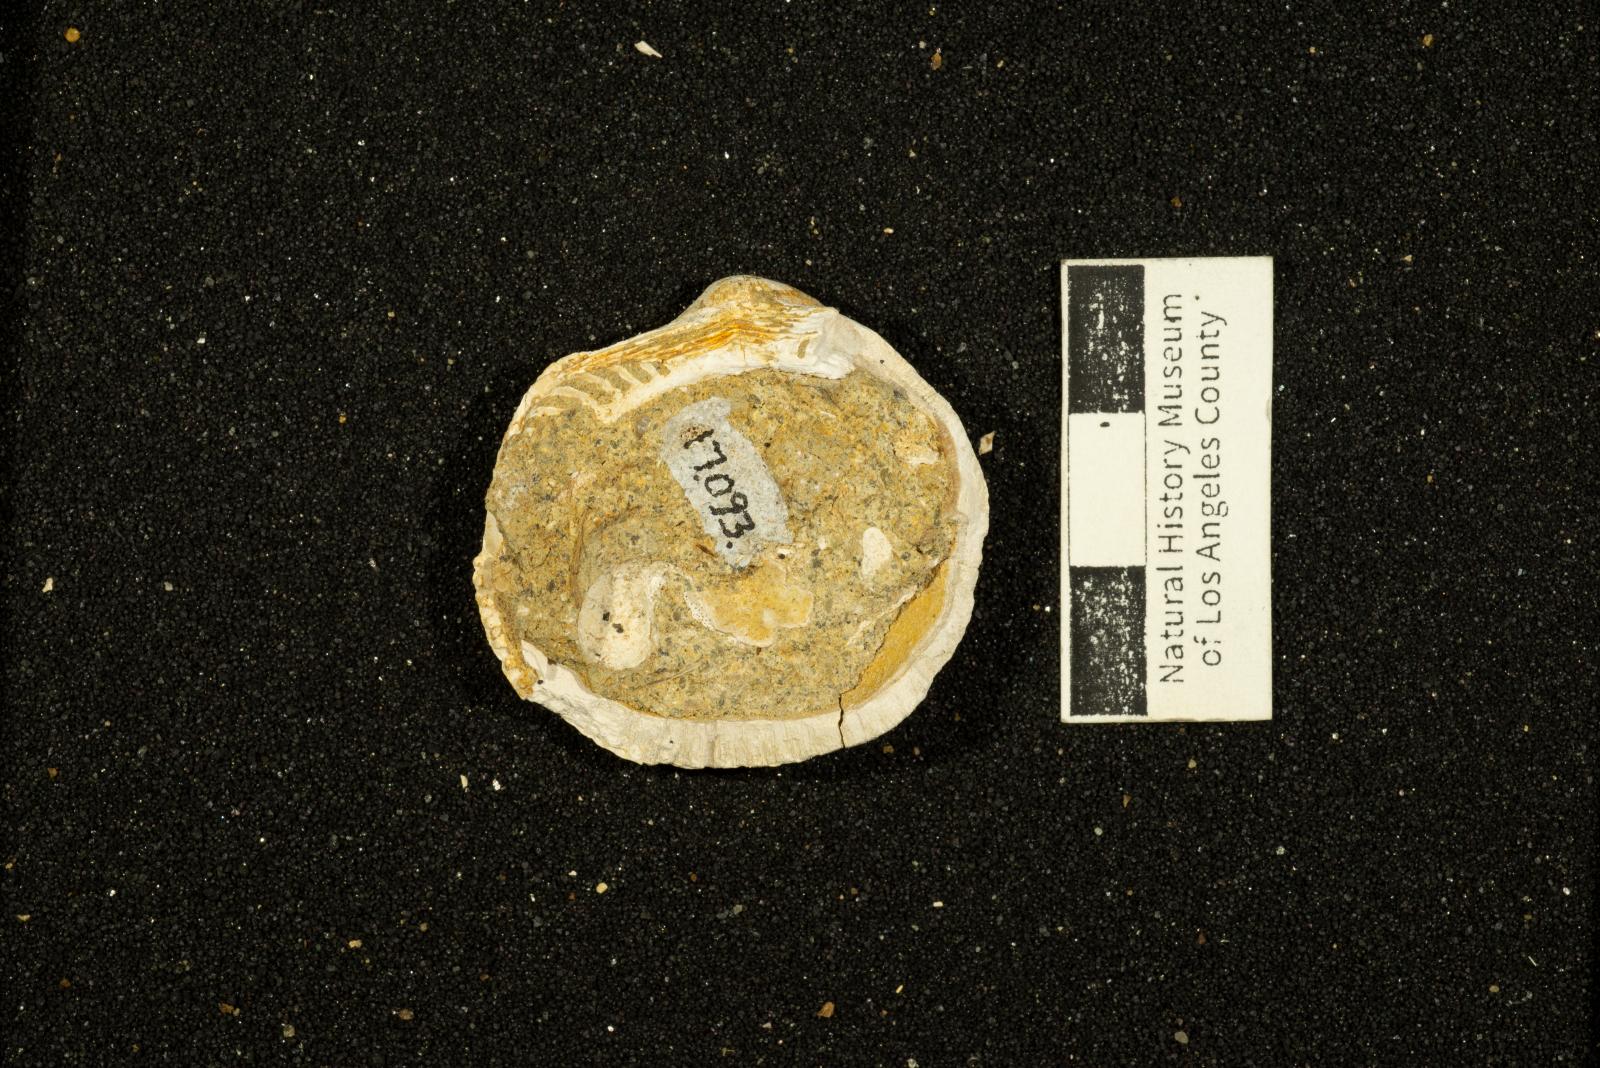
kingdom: Animalia
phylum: Mollusca
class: Bivalvia
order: Arcida
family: Glycymerididae
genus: Glycymerita
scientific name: Glycymerita Axinaea veatchii
